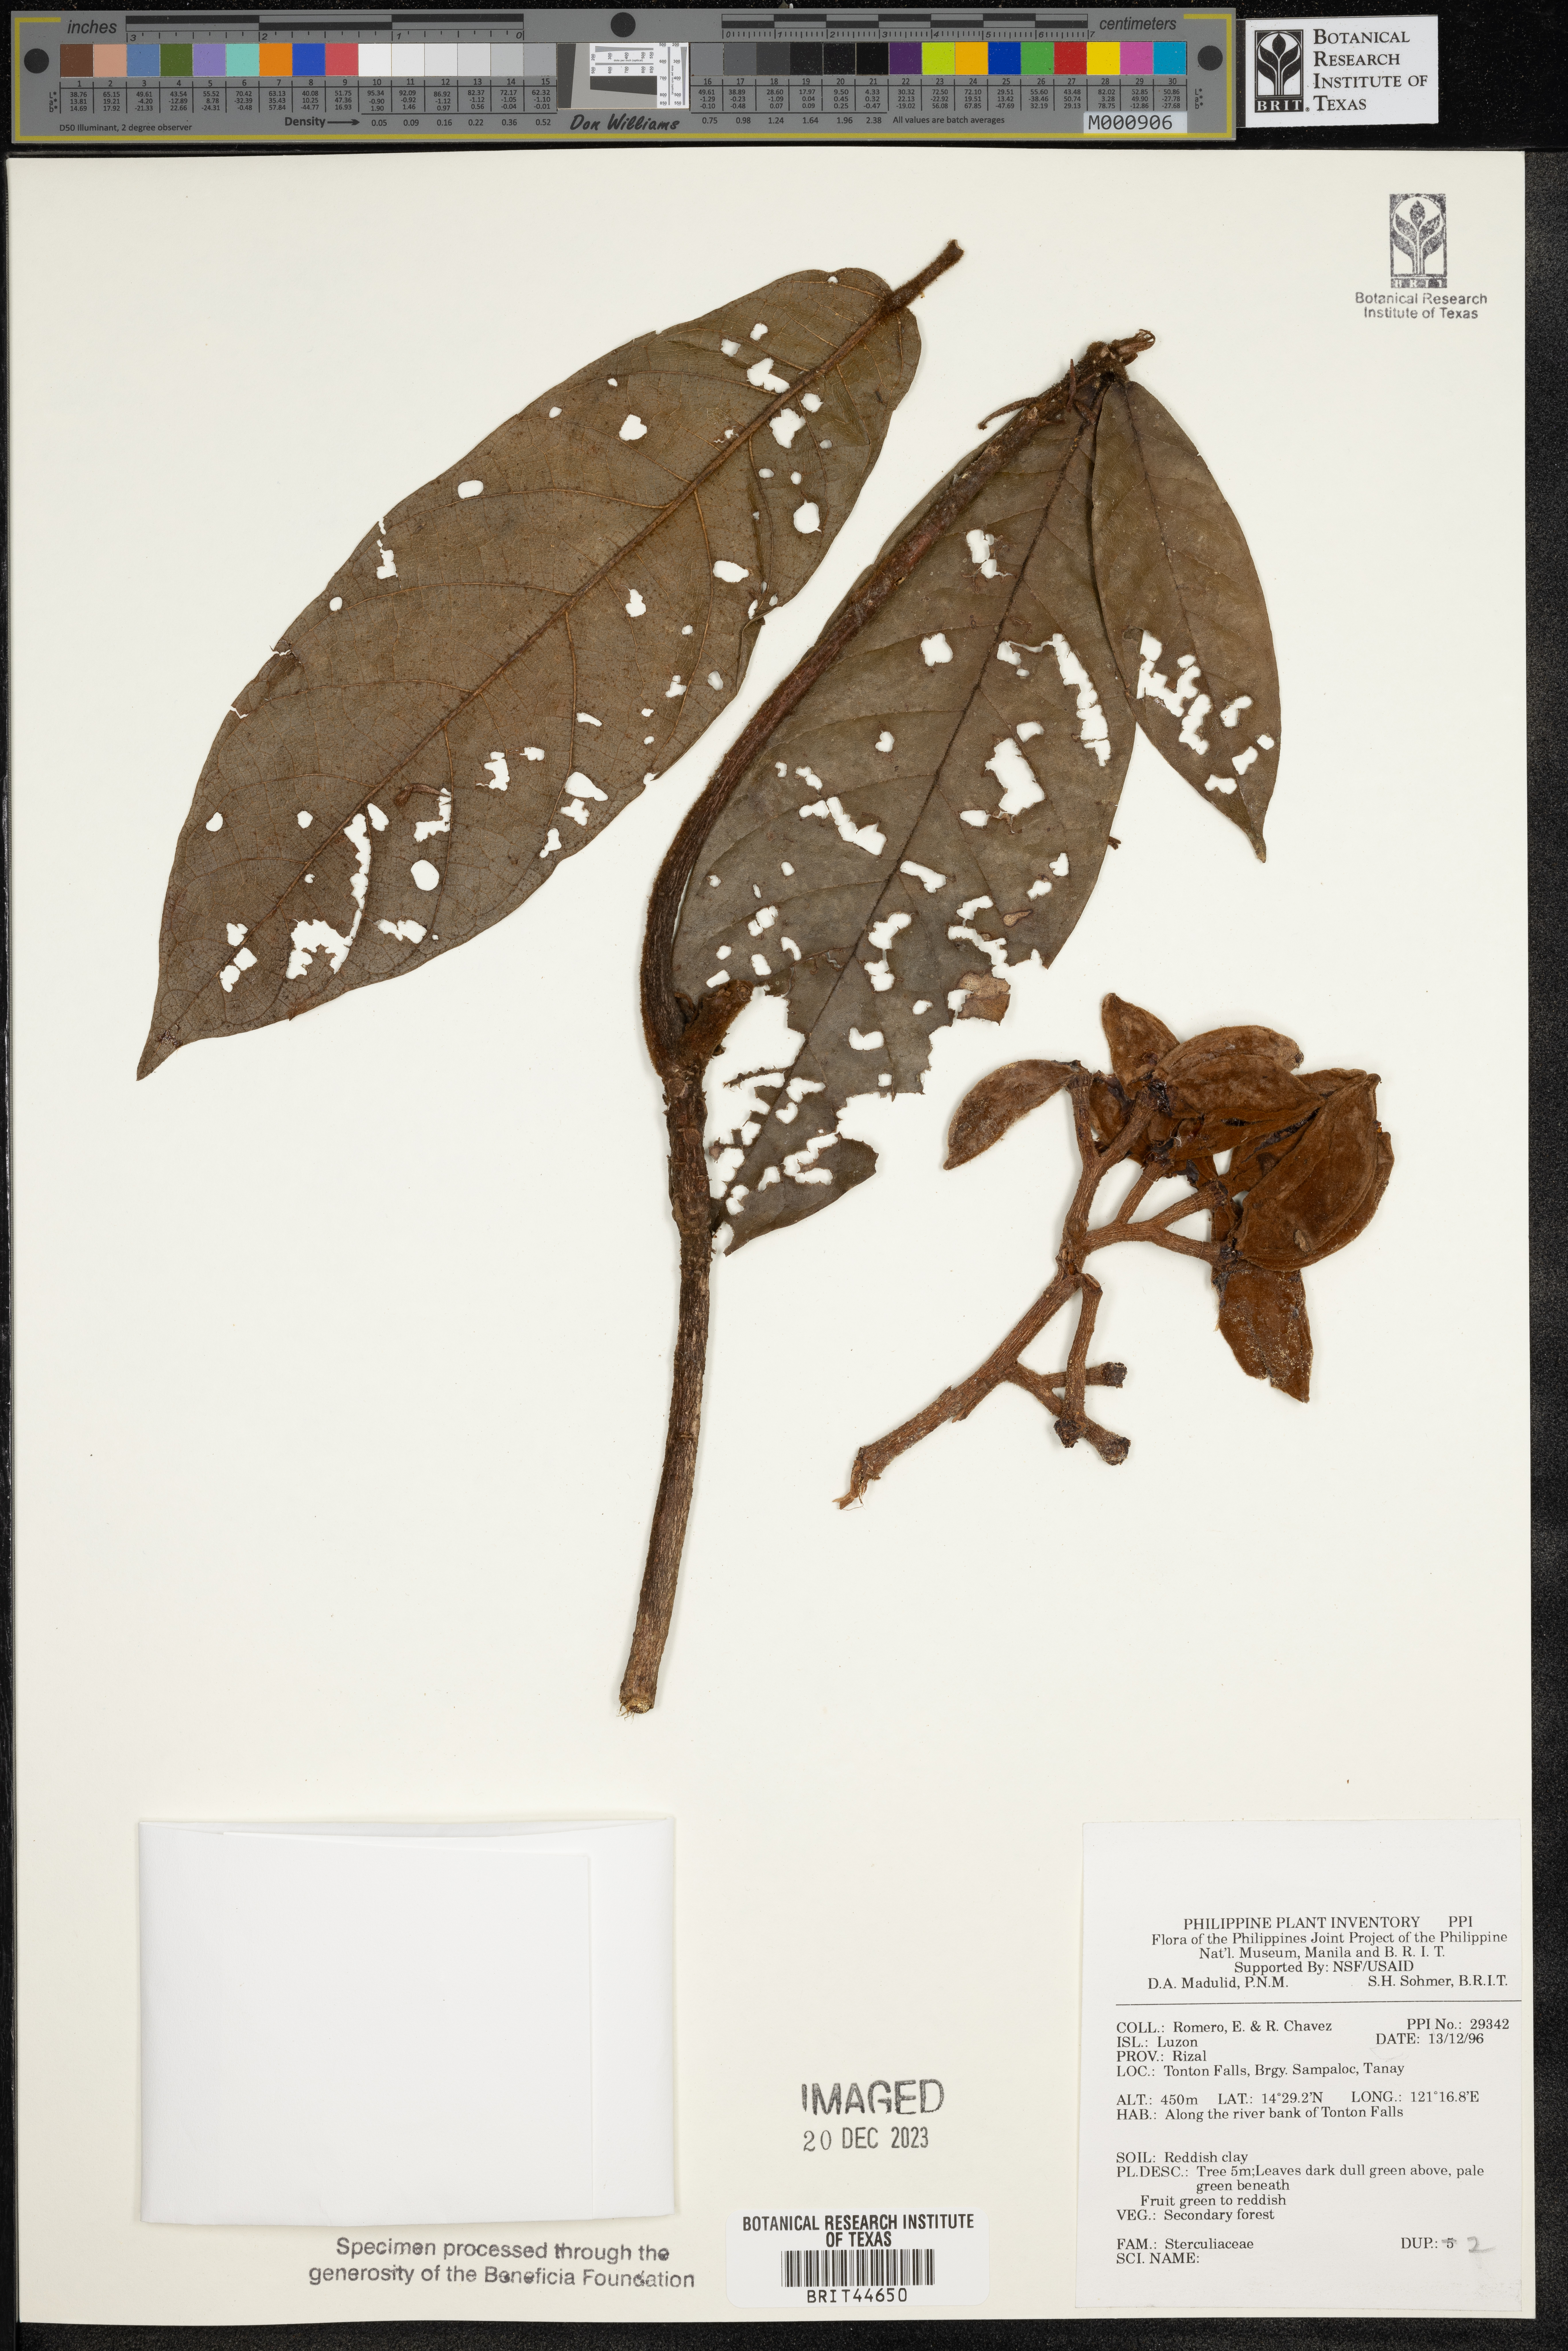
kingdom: Plantae
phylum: Tracheophyta
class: Magnoliopsida
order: Malvales
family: Sterculiaceae
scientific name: Sterculiaceae
